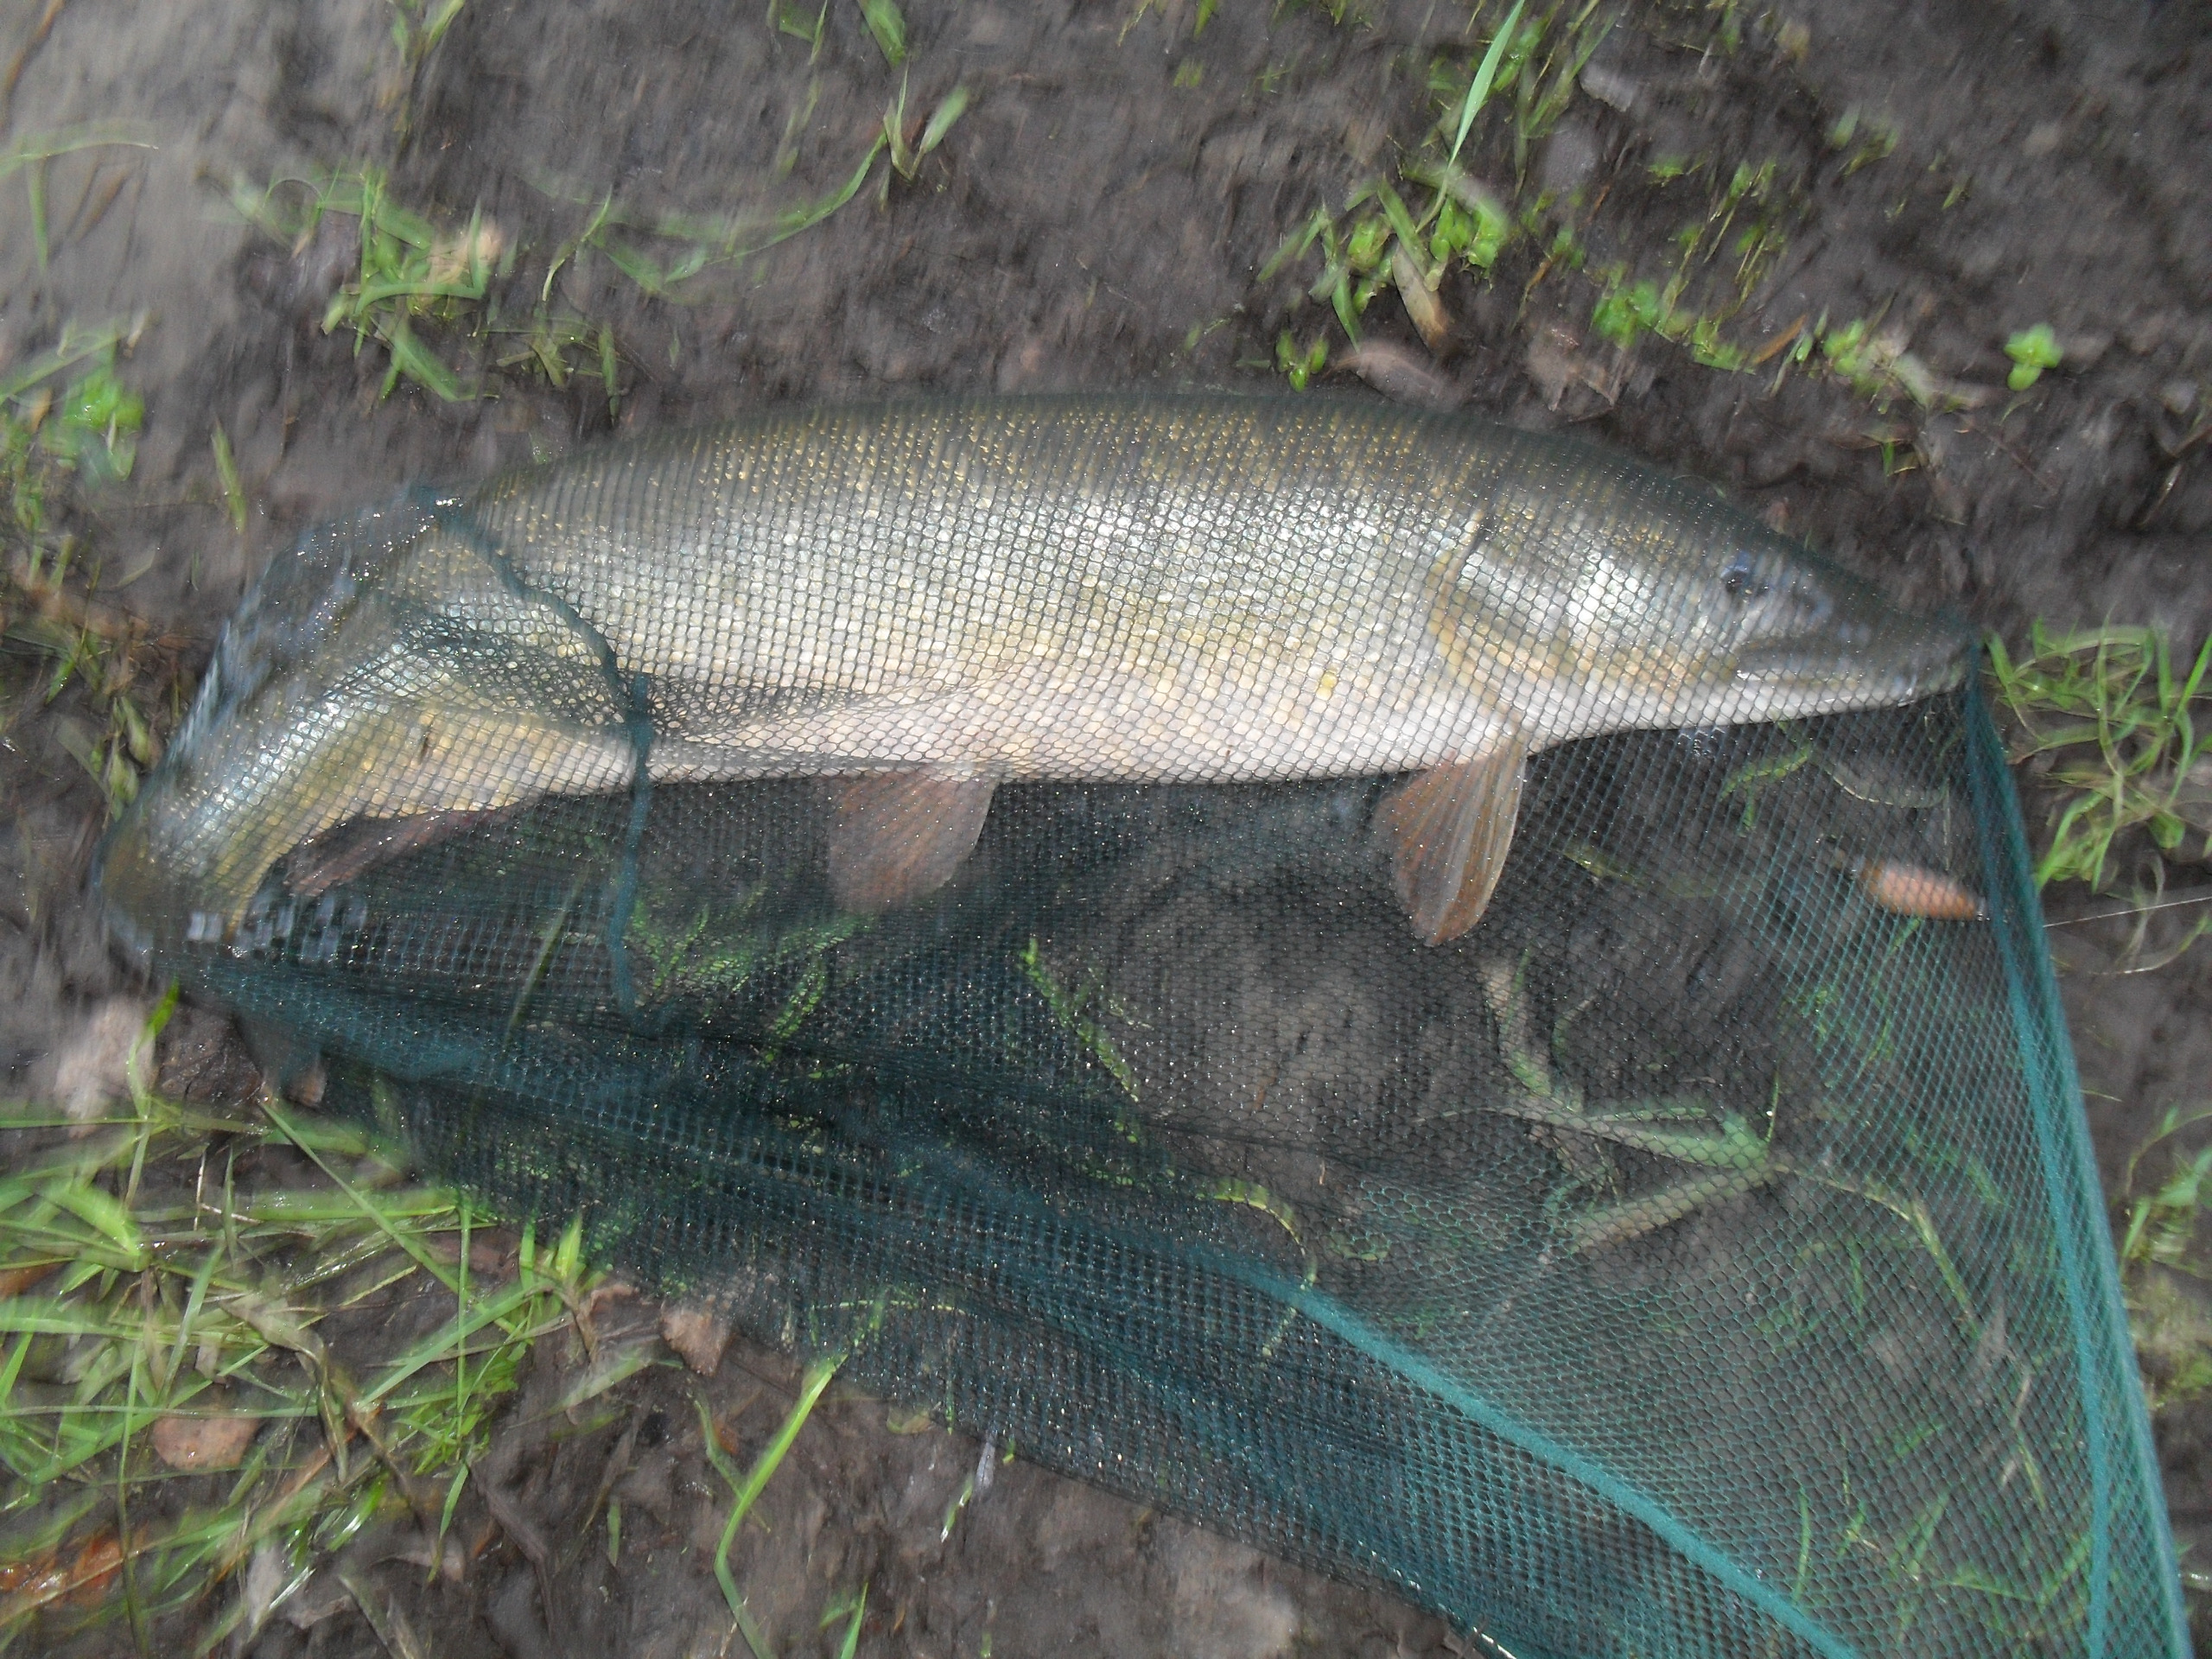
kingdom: Animalia
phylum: Chordata
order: Esociformes
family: Esocidae
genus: Esox
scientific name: Esox lucius
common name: Gedde
